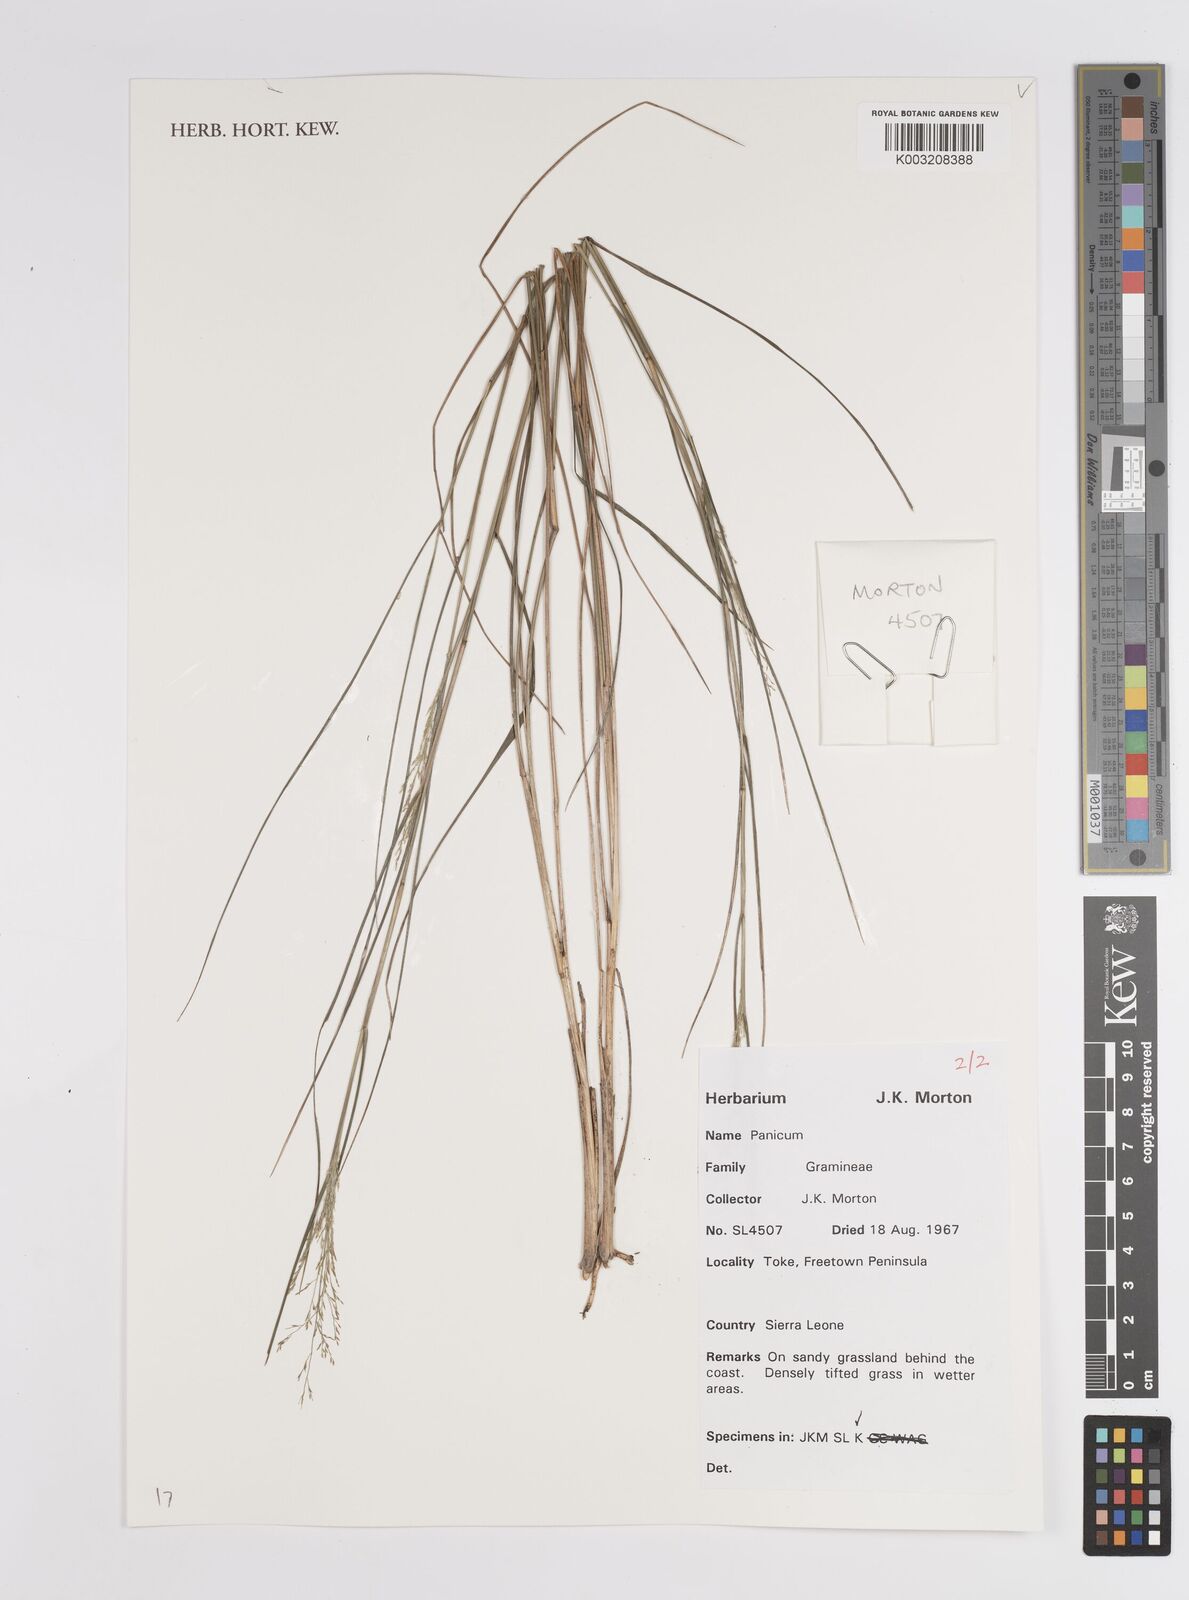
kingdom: Plantae
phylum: Tracheophyta
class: Liliopsida
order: Poales
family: Poaceae
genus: Panicum
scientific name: Panicum
